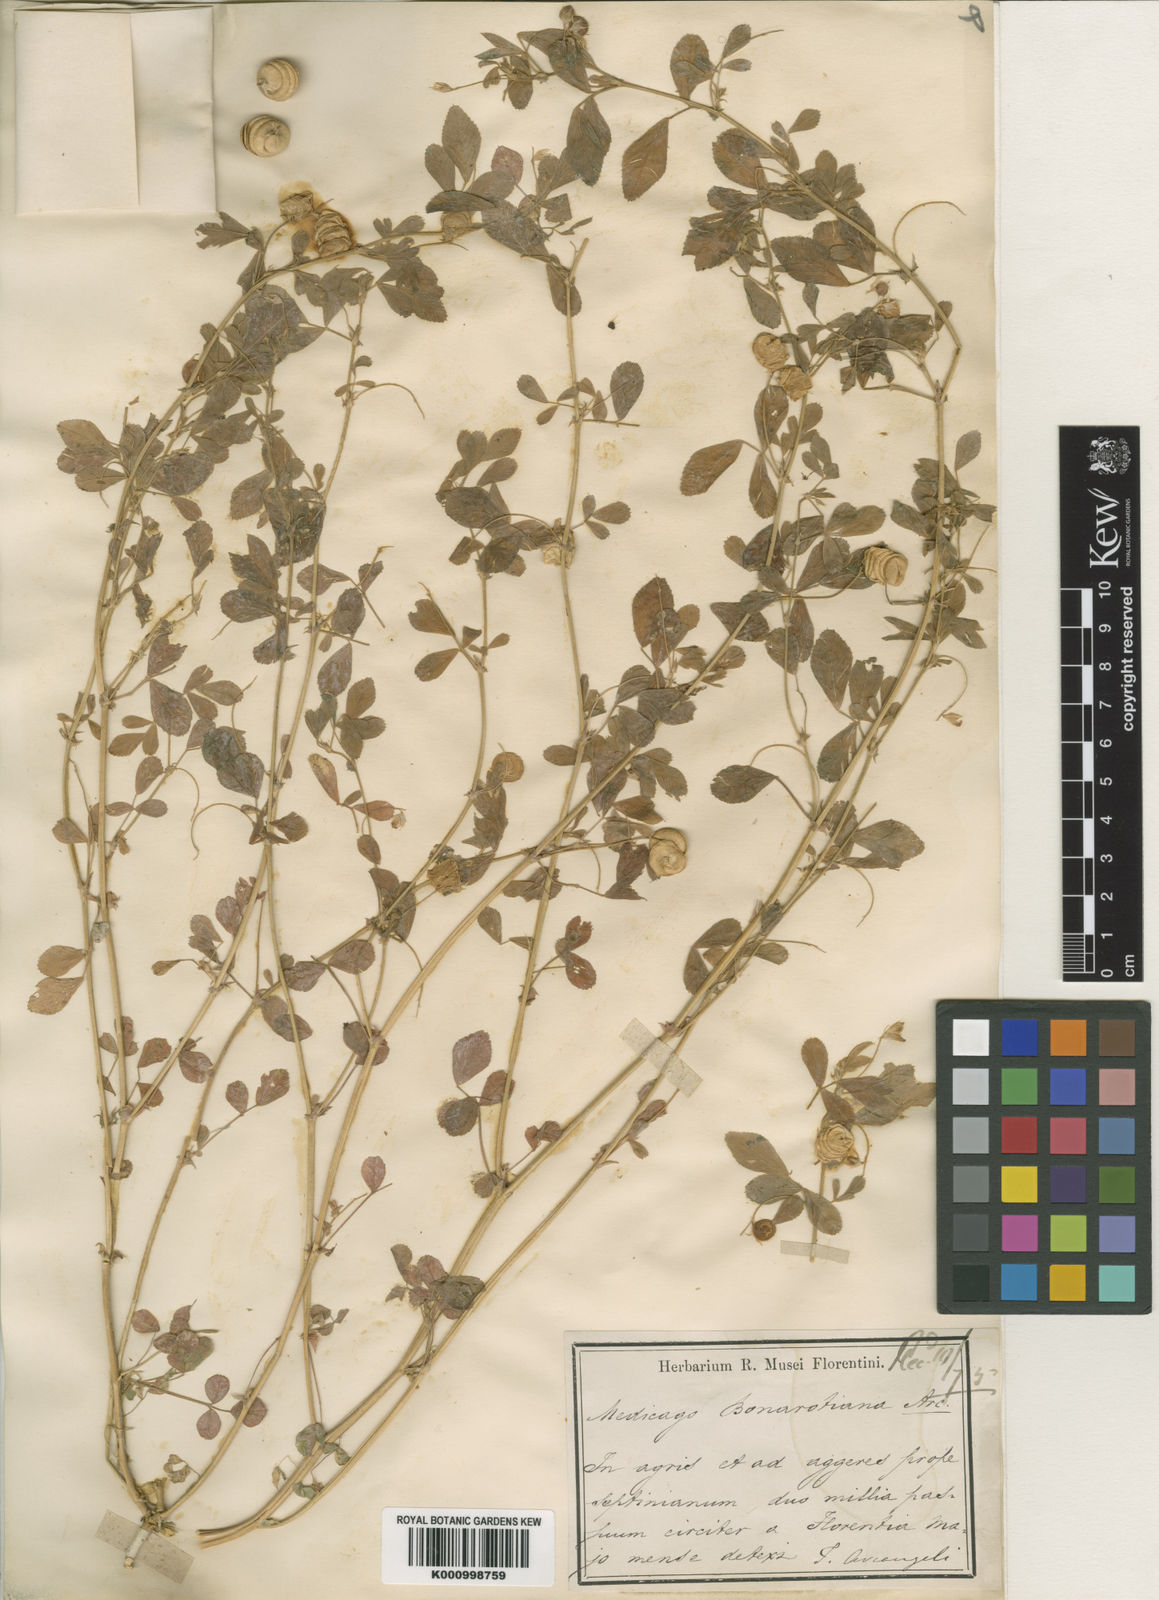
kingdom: Plantae
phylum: Tracheophyta
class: Magnoliopsida
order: Fabales
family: Fabaceae
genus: Medicago
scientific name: Medicago blancheana
